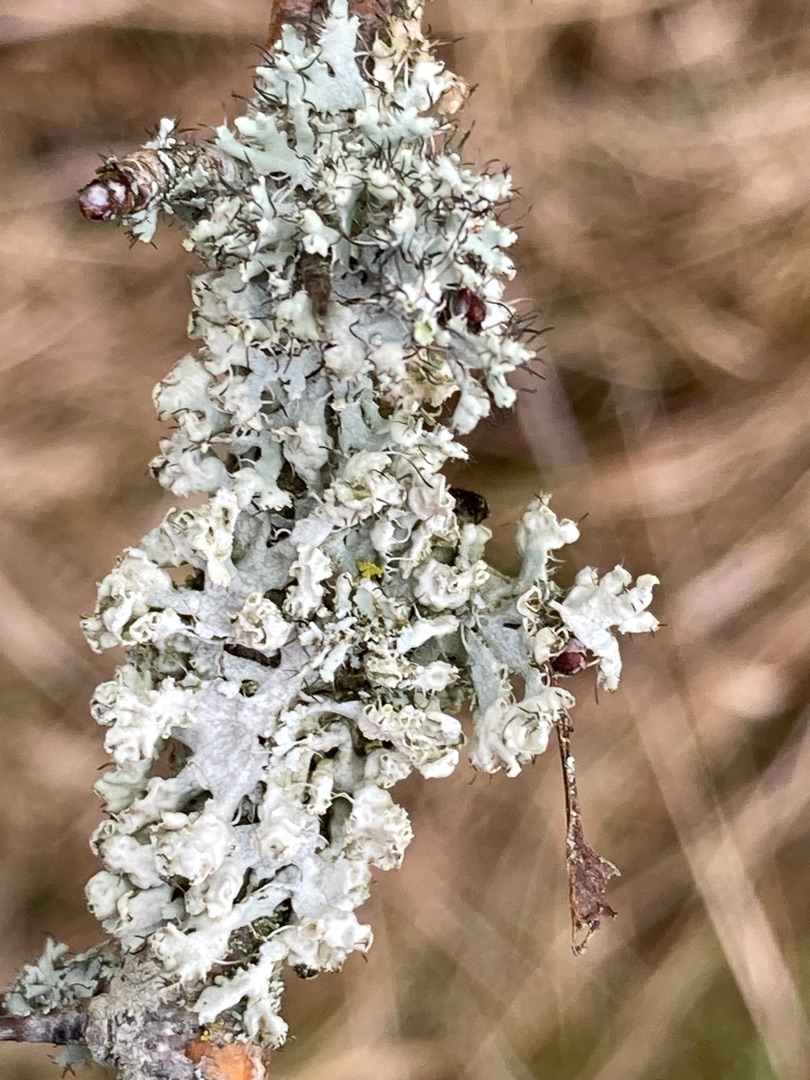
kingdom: Fungi
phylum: Ascomycota
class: Lecanoromycetes
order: Caliciales
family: Physciaceae
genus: Physcia
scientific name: Physcia adscendens
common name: Hætte-rosetlav
